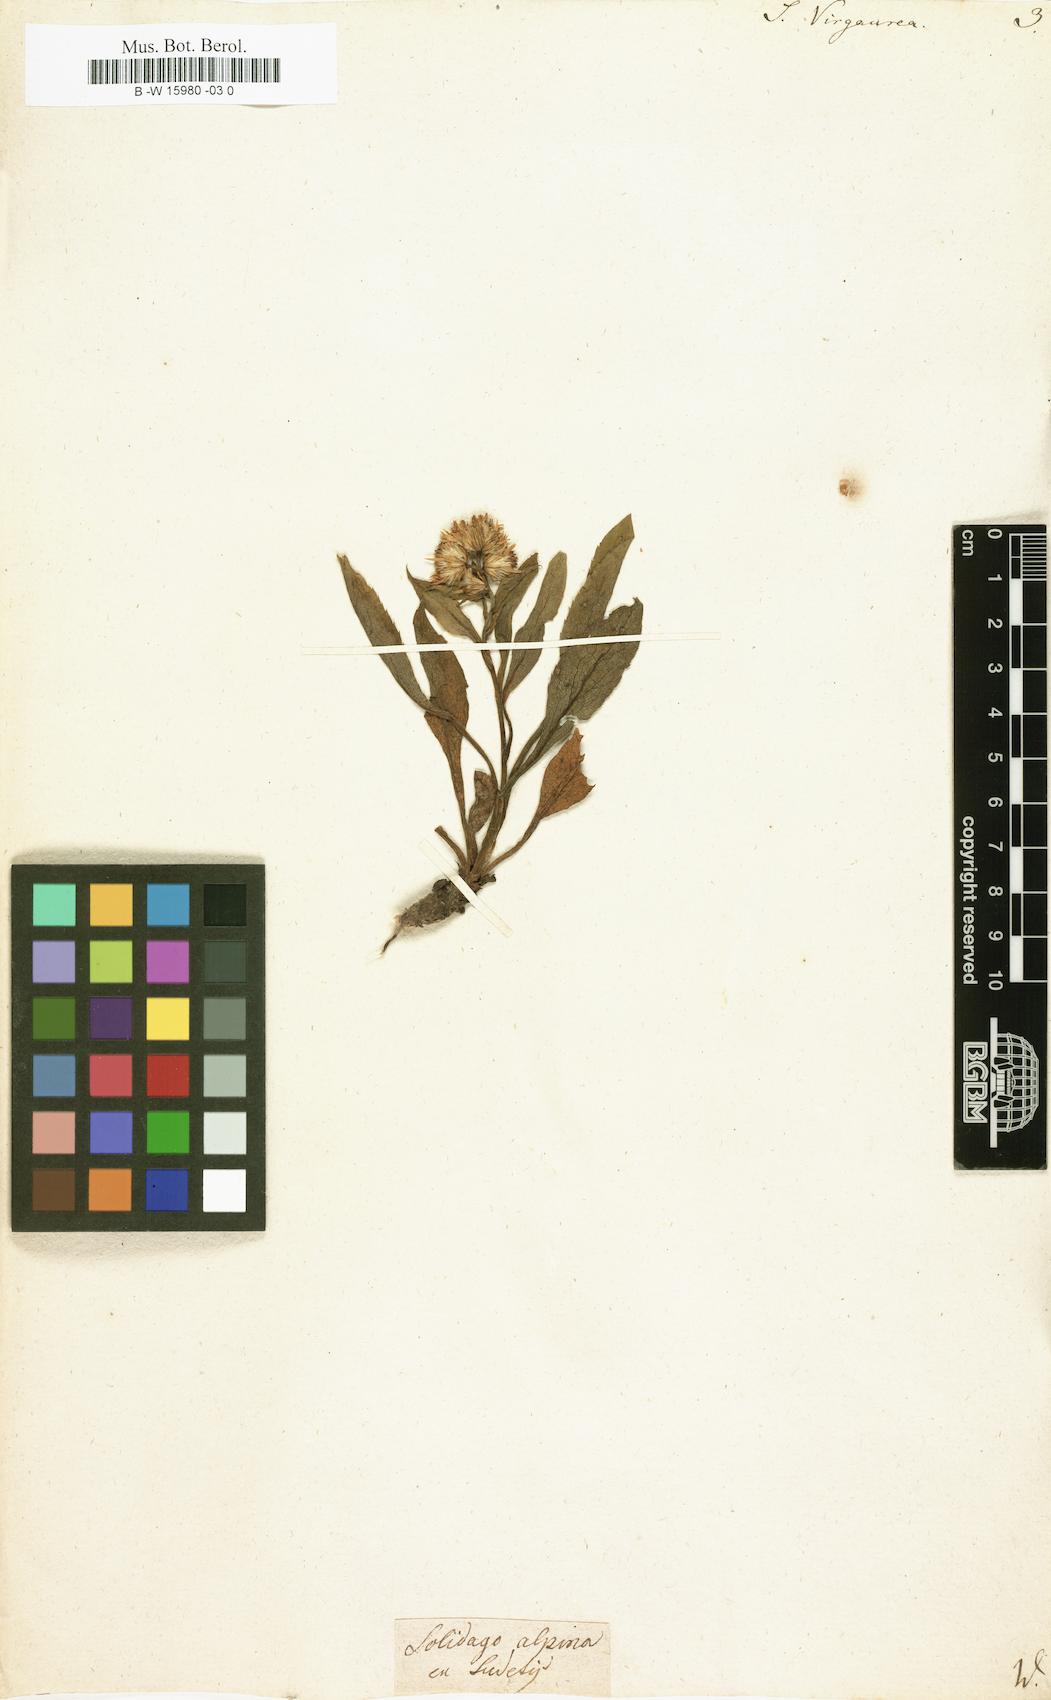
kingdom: Plantae
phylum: Tracheophyta
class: Magnoliopsida
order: Asterales
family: Asteraceae
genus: Solidago
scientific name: Solidago virgaurea
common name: Goldenrod
